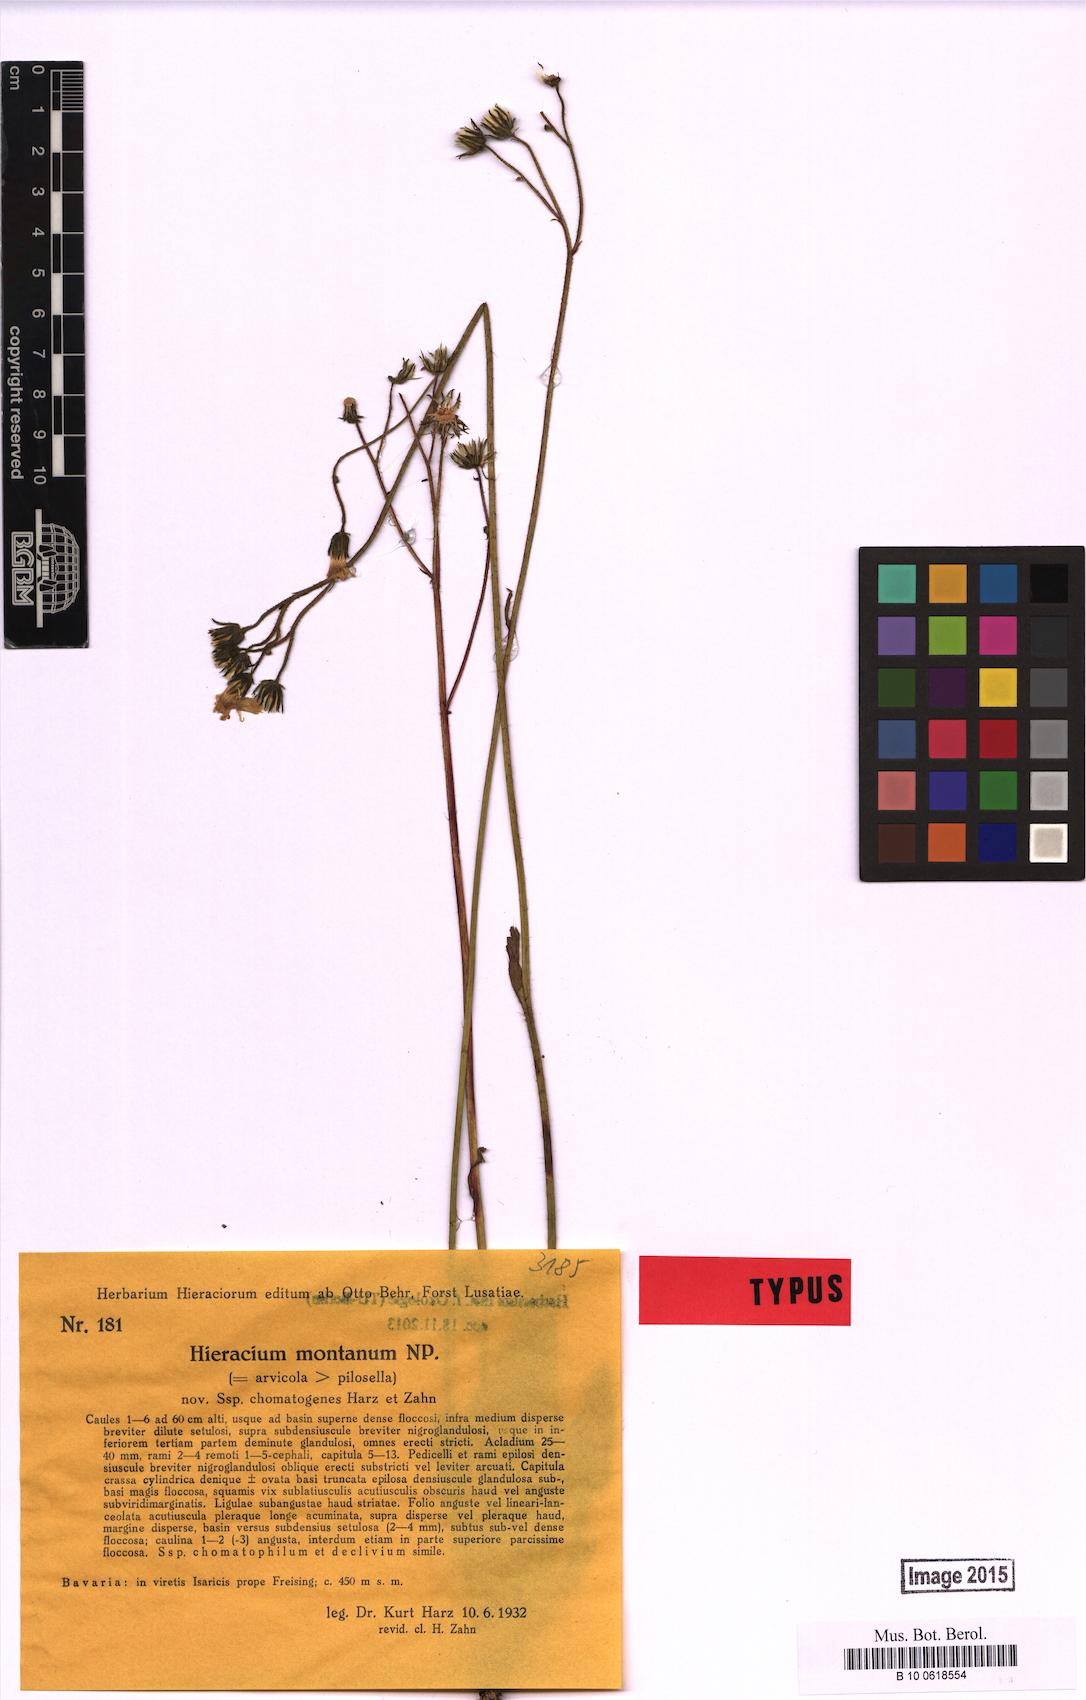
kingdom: Plantae
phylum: Tracheophyta
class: Magnoliopsida
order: Asterales
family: Asteraceae
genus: Pilosella
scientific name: Pilosella chomatophila
